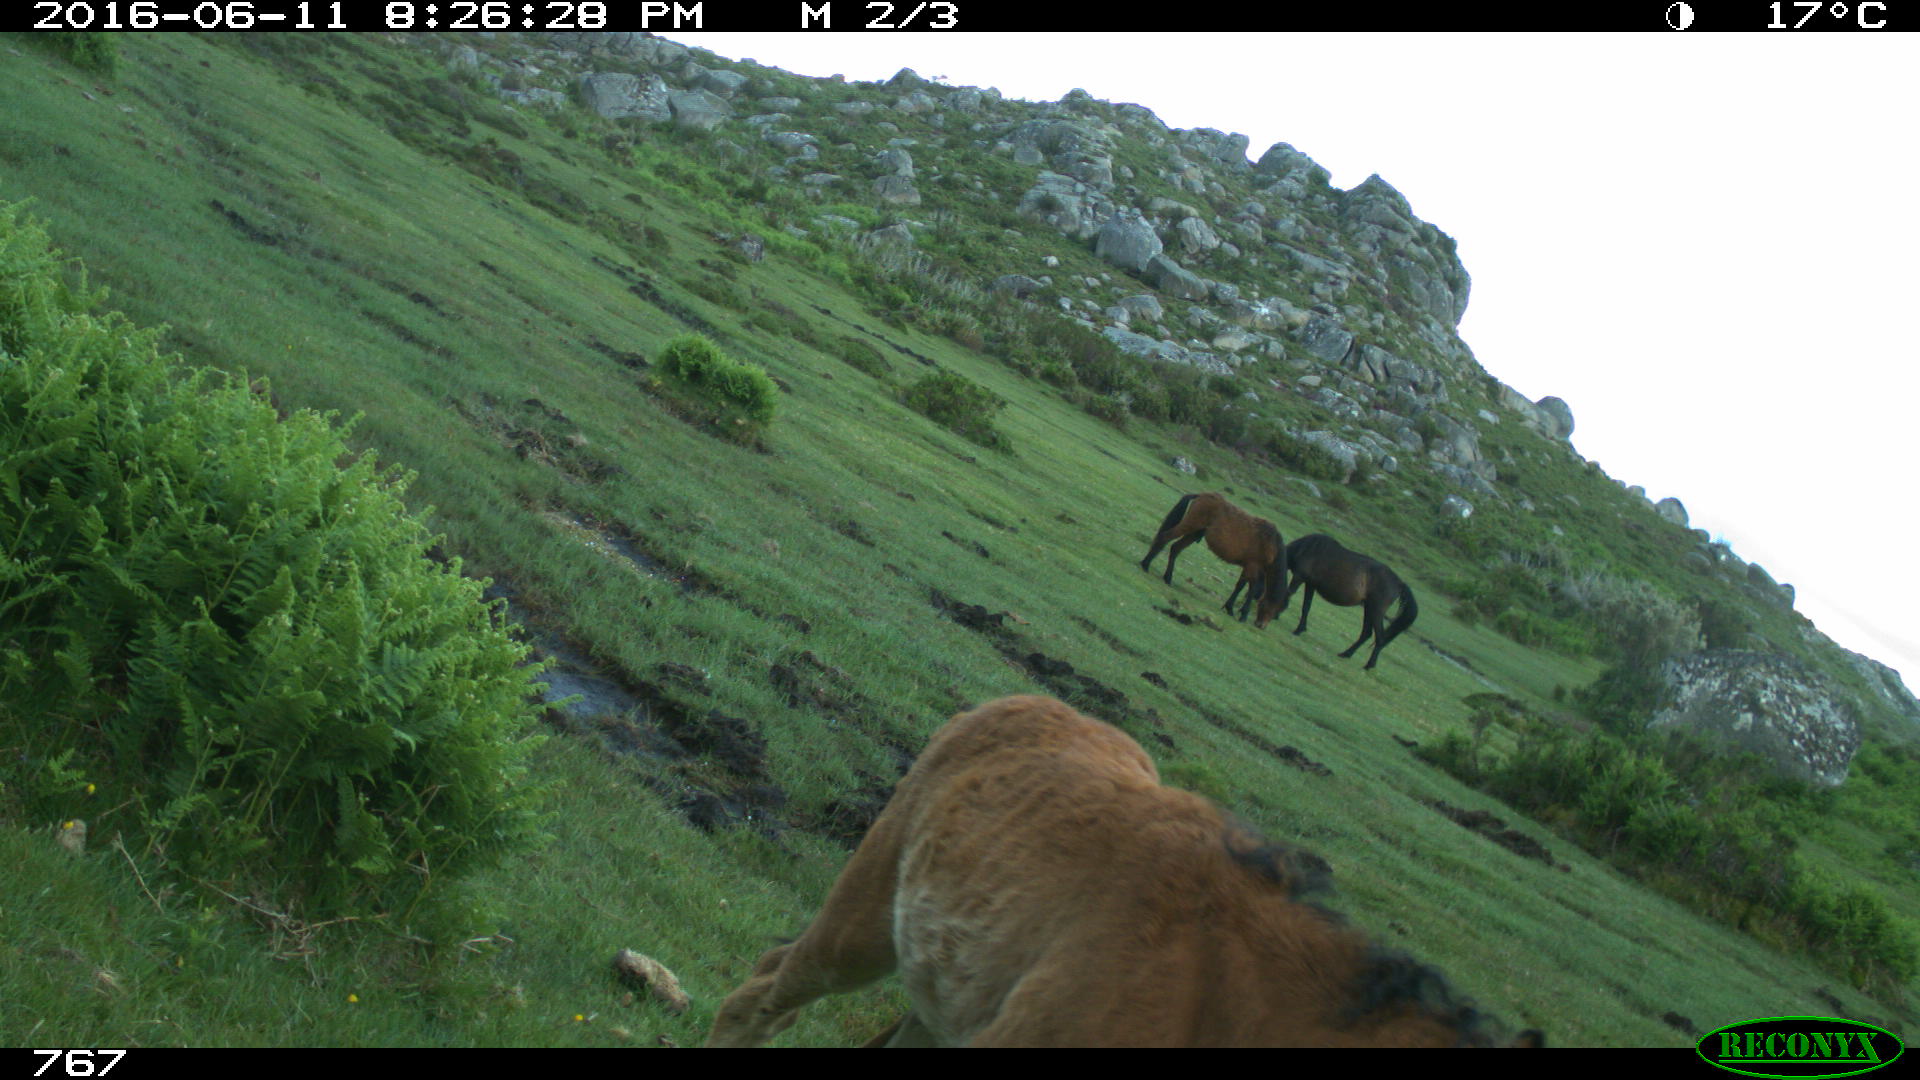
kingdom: Animalia
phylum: Chordata
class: Mammalia
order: Perissodactyla
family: Equidae
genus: Equus
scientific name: Equus caballus
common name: Horse
